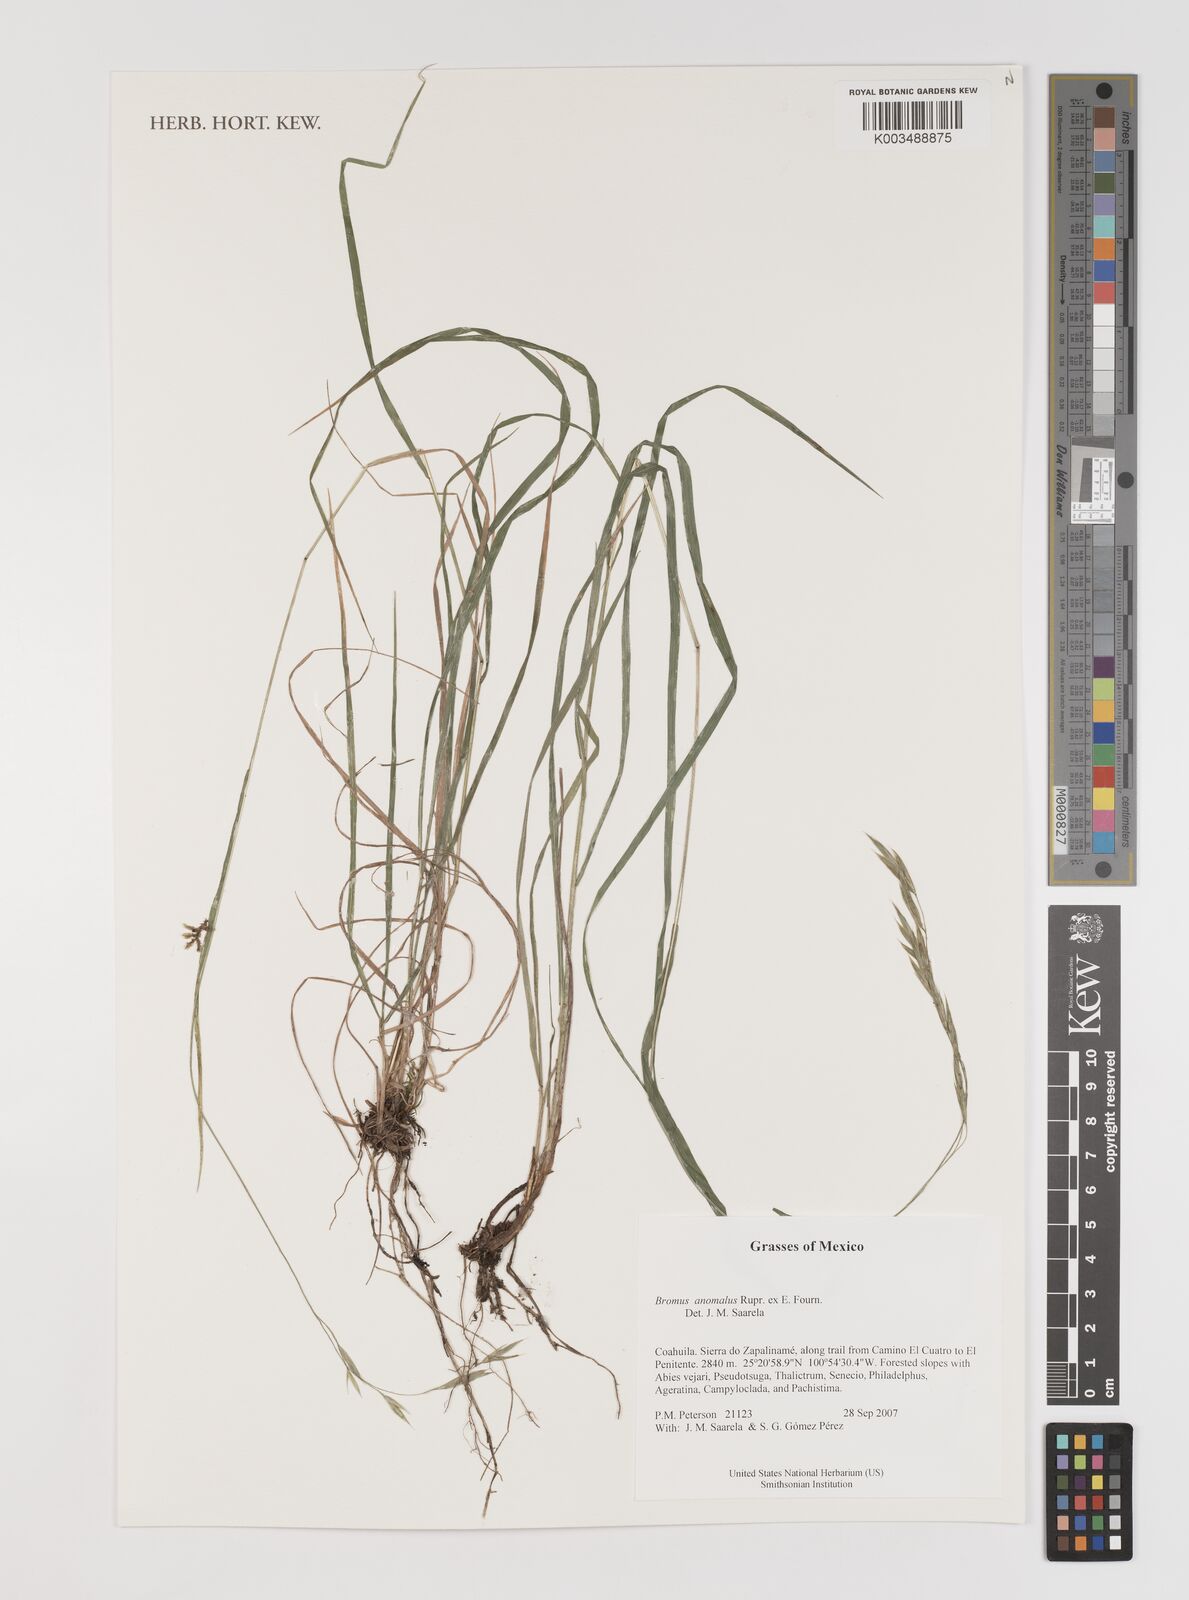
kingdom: Plantae
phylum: Tracheophyta
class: Liliopsida
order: Poales
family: Poaceae
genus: Bromus
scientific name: Bromus anomalus
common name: Nodding brome
